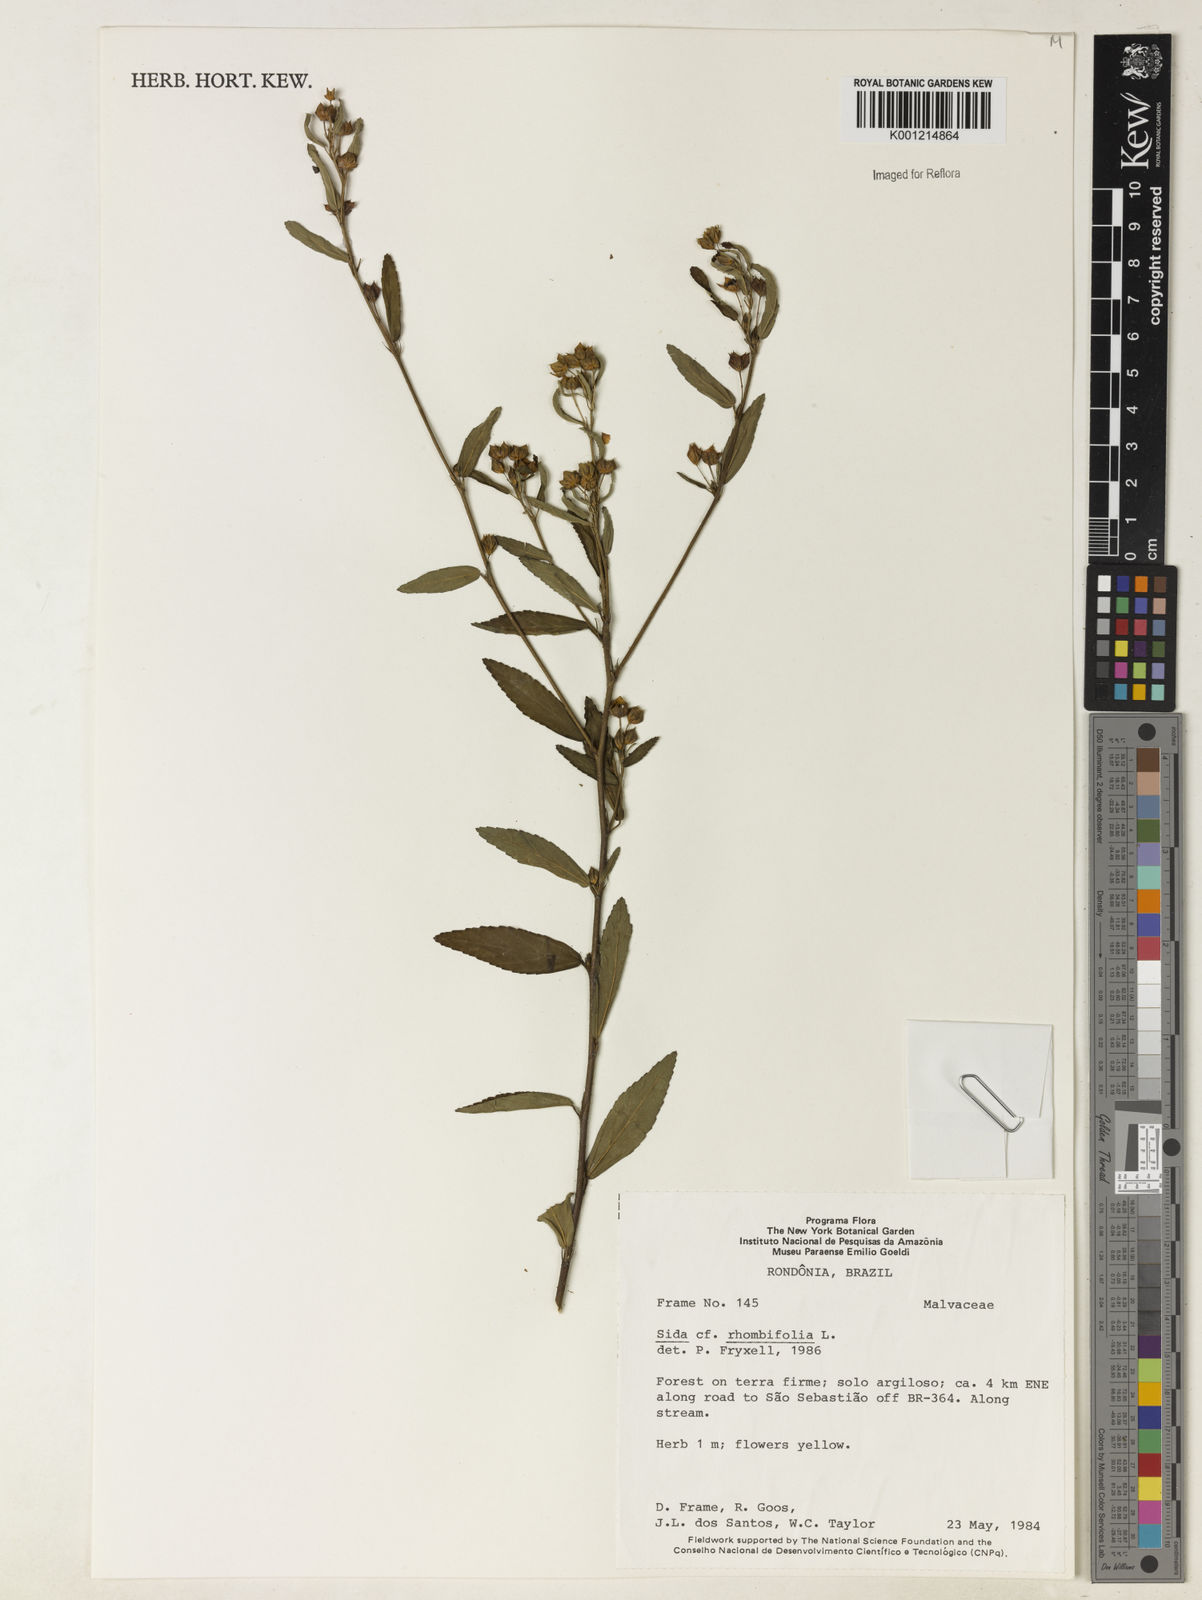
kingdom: Plantae
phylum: Tracheophyta
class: Magnoliopsida
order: Malvales
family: Malvaceae
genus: Sida
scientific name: Sida rhombifolia
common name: Queensland-hemp
